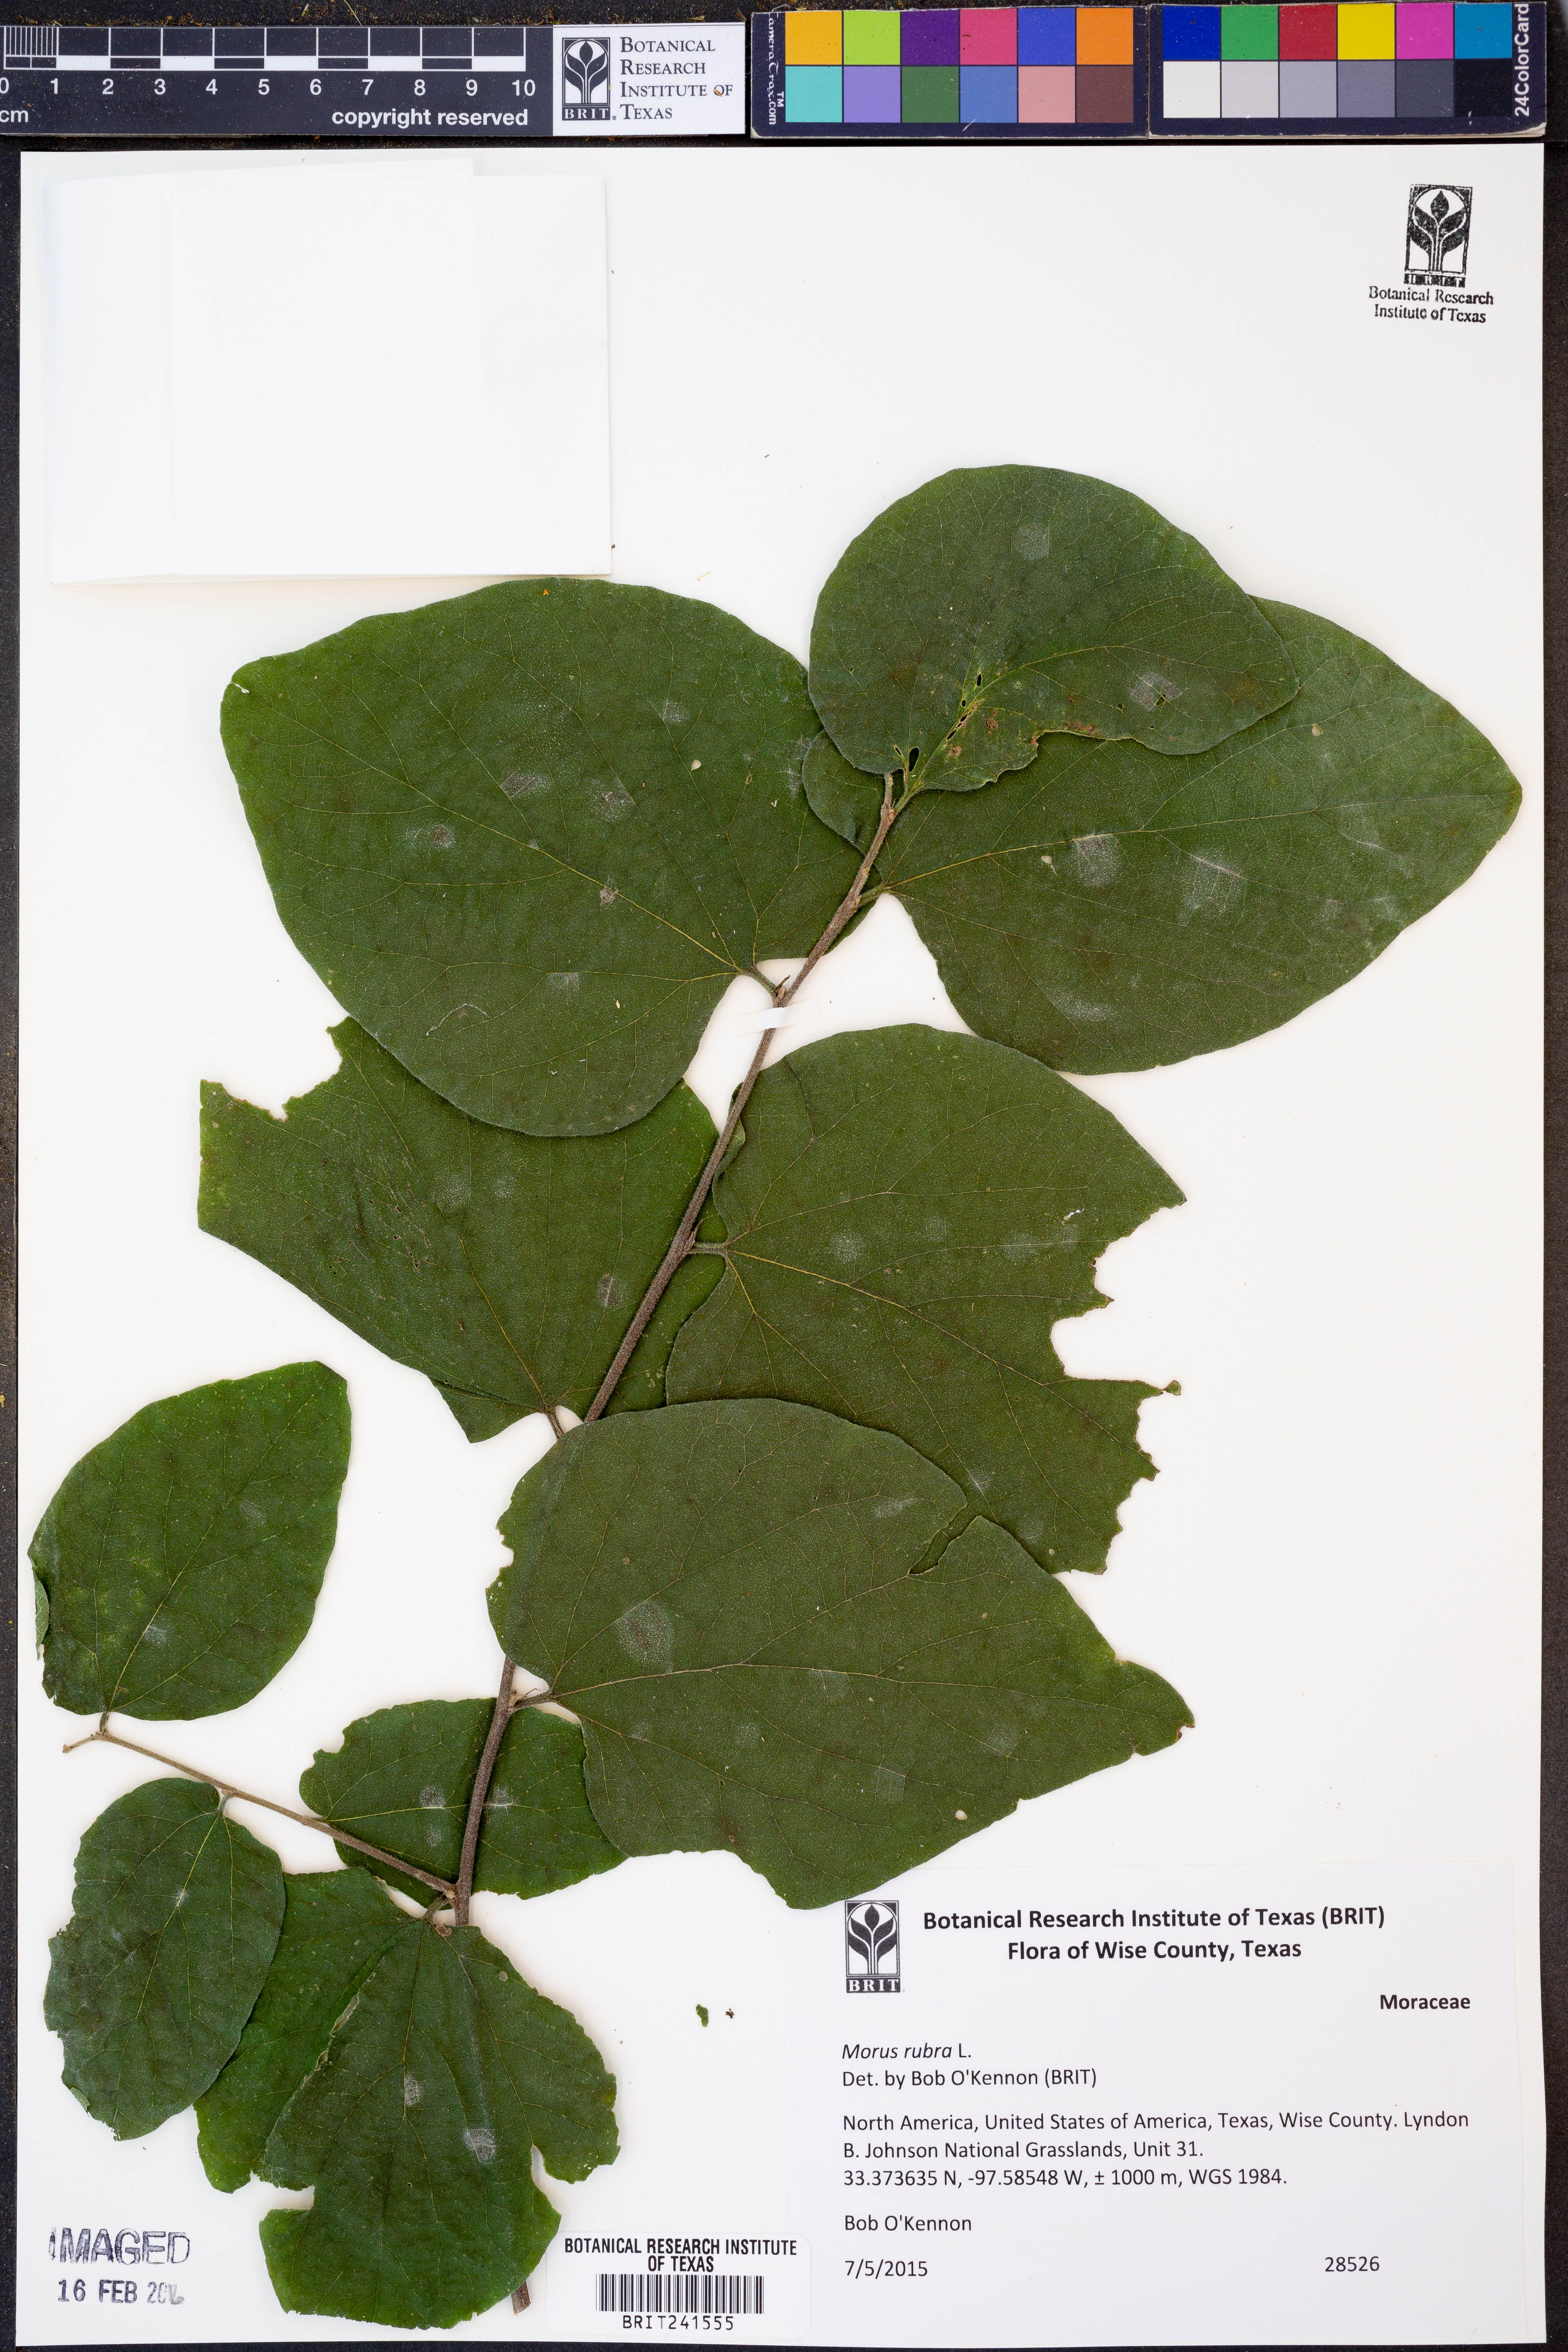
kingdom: Plantae
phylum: Tracheophyta
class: Magnoliopsida
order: Rosales
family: Moraceae
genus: Morus
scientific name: Morus rubra
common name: Red mulberry
